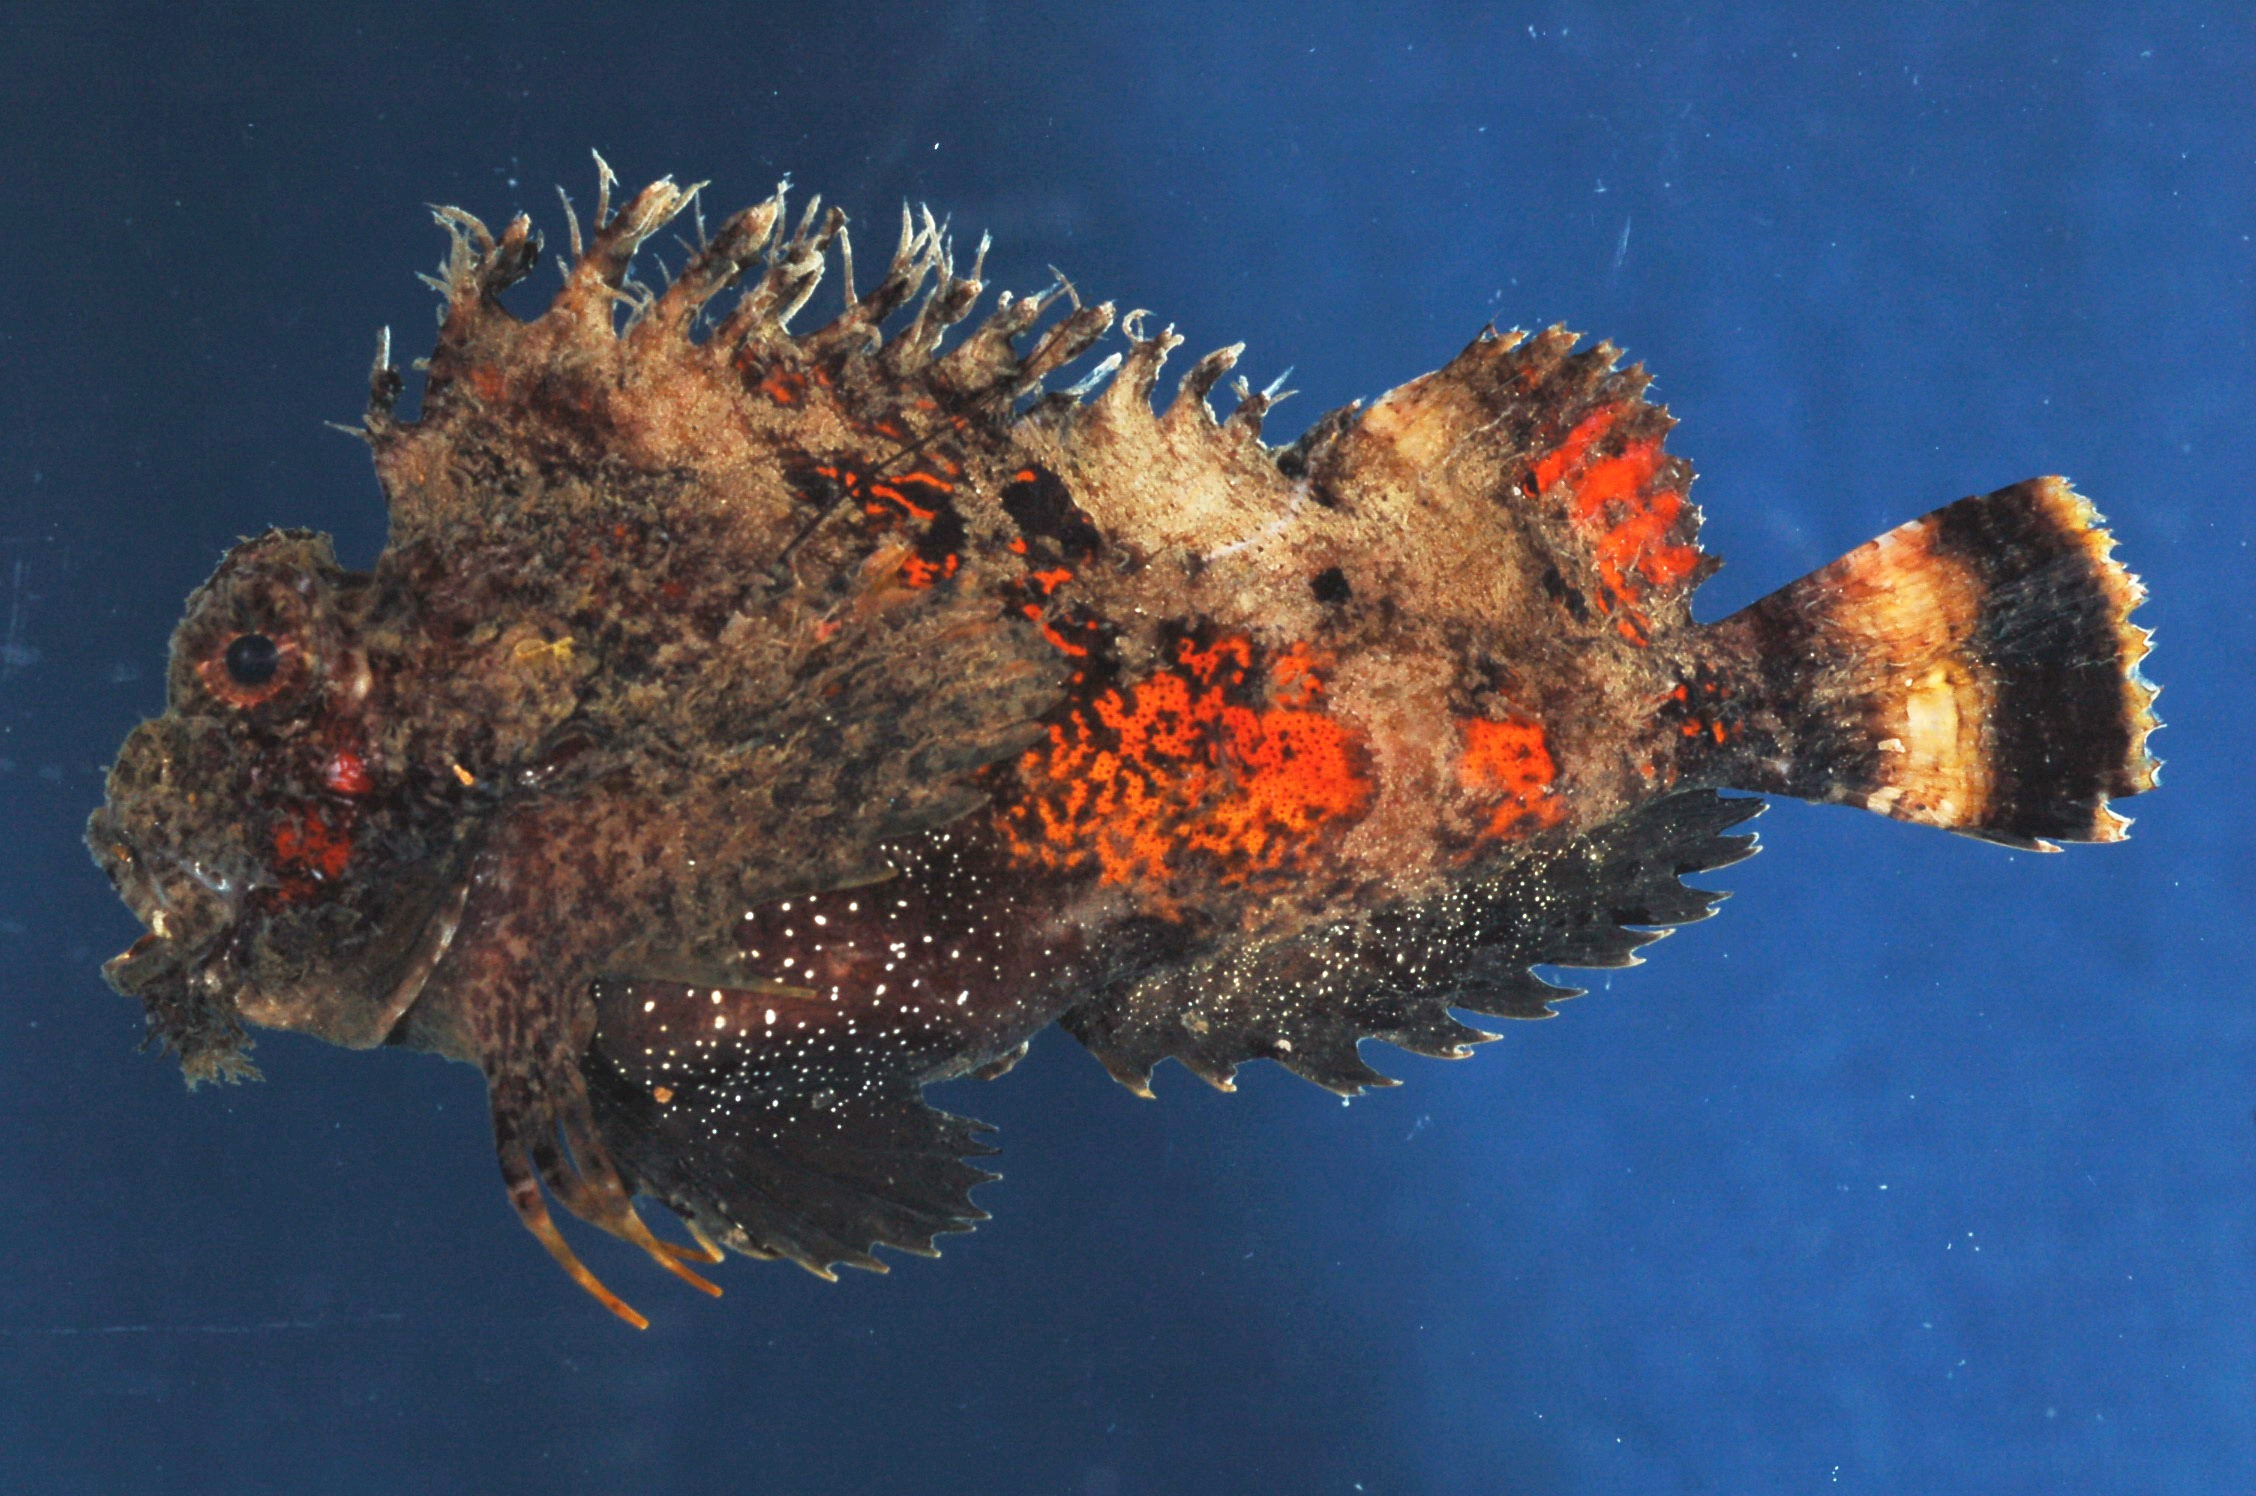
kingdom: Animalia
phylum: Chordata
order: Scorpaeniformes
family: Synanceiidae
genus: Choridactylus
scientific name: Choridactylus natalensis
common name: Threestick stingfish
